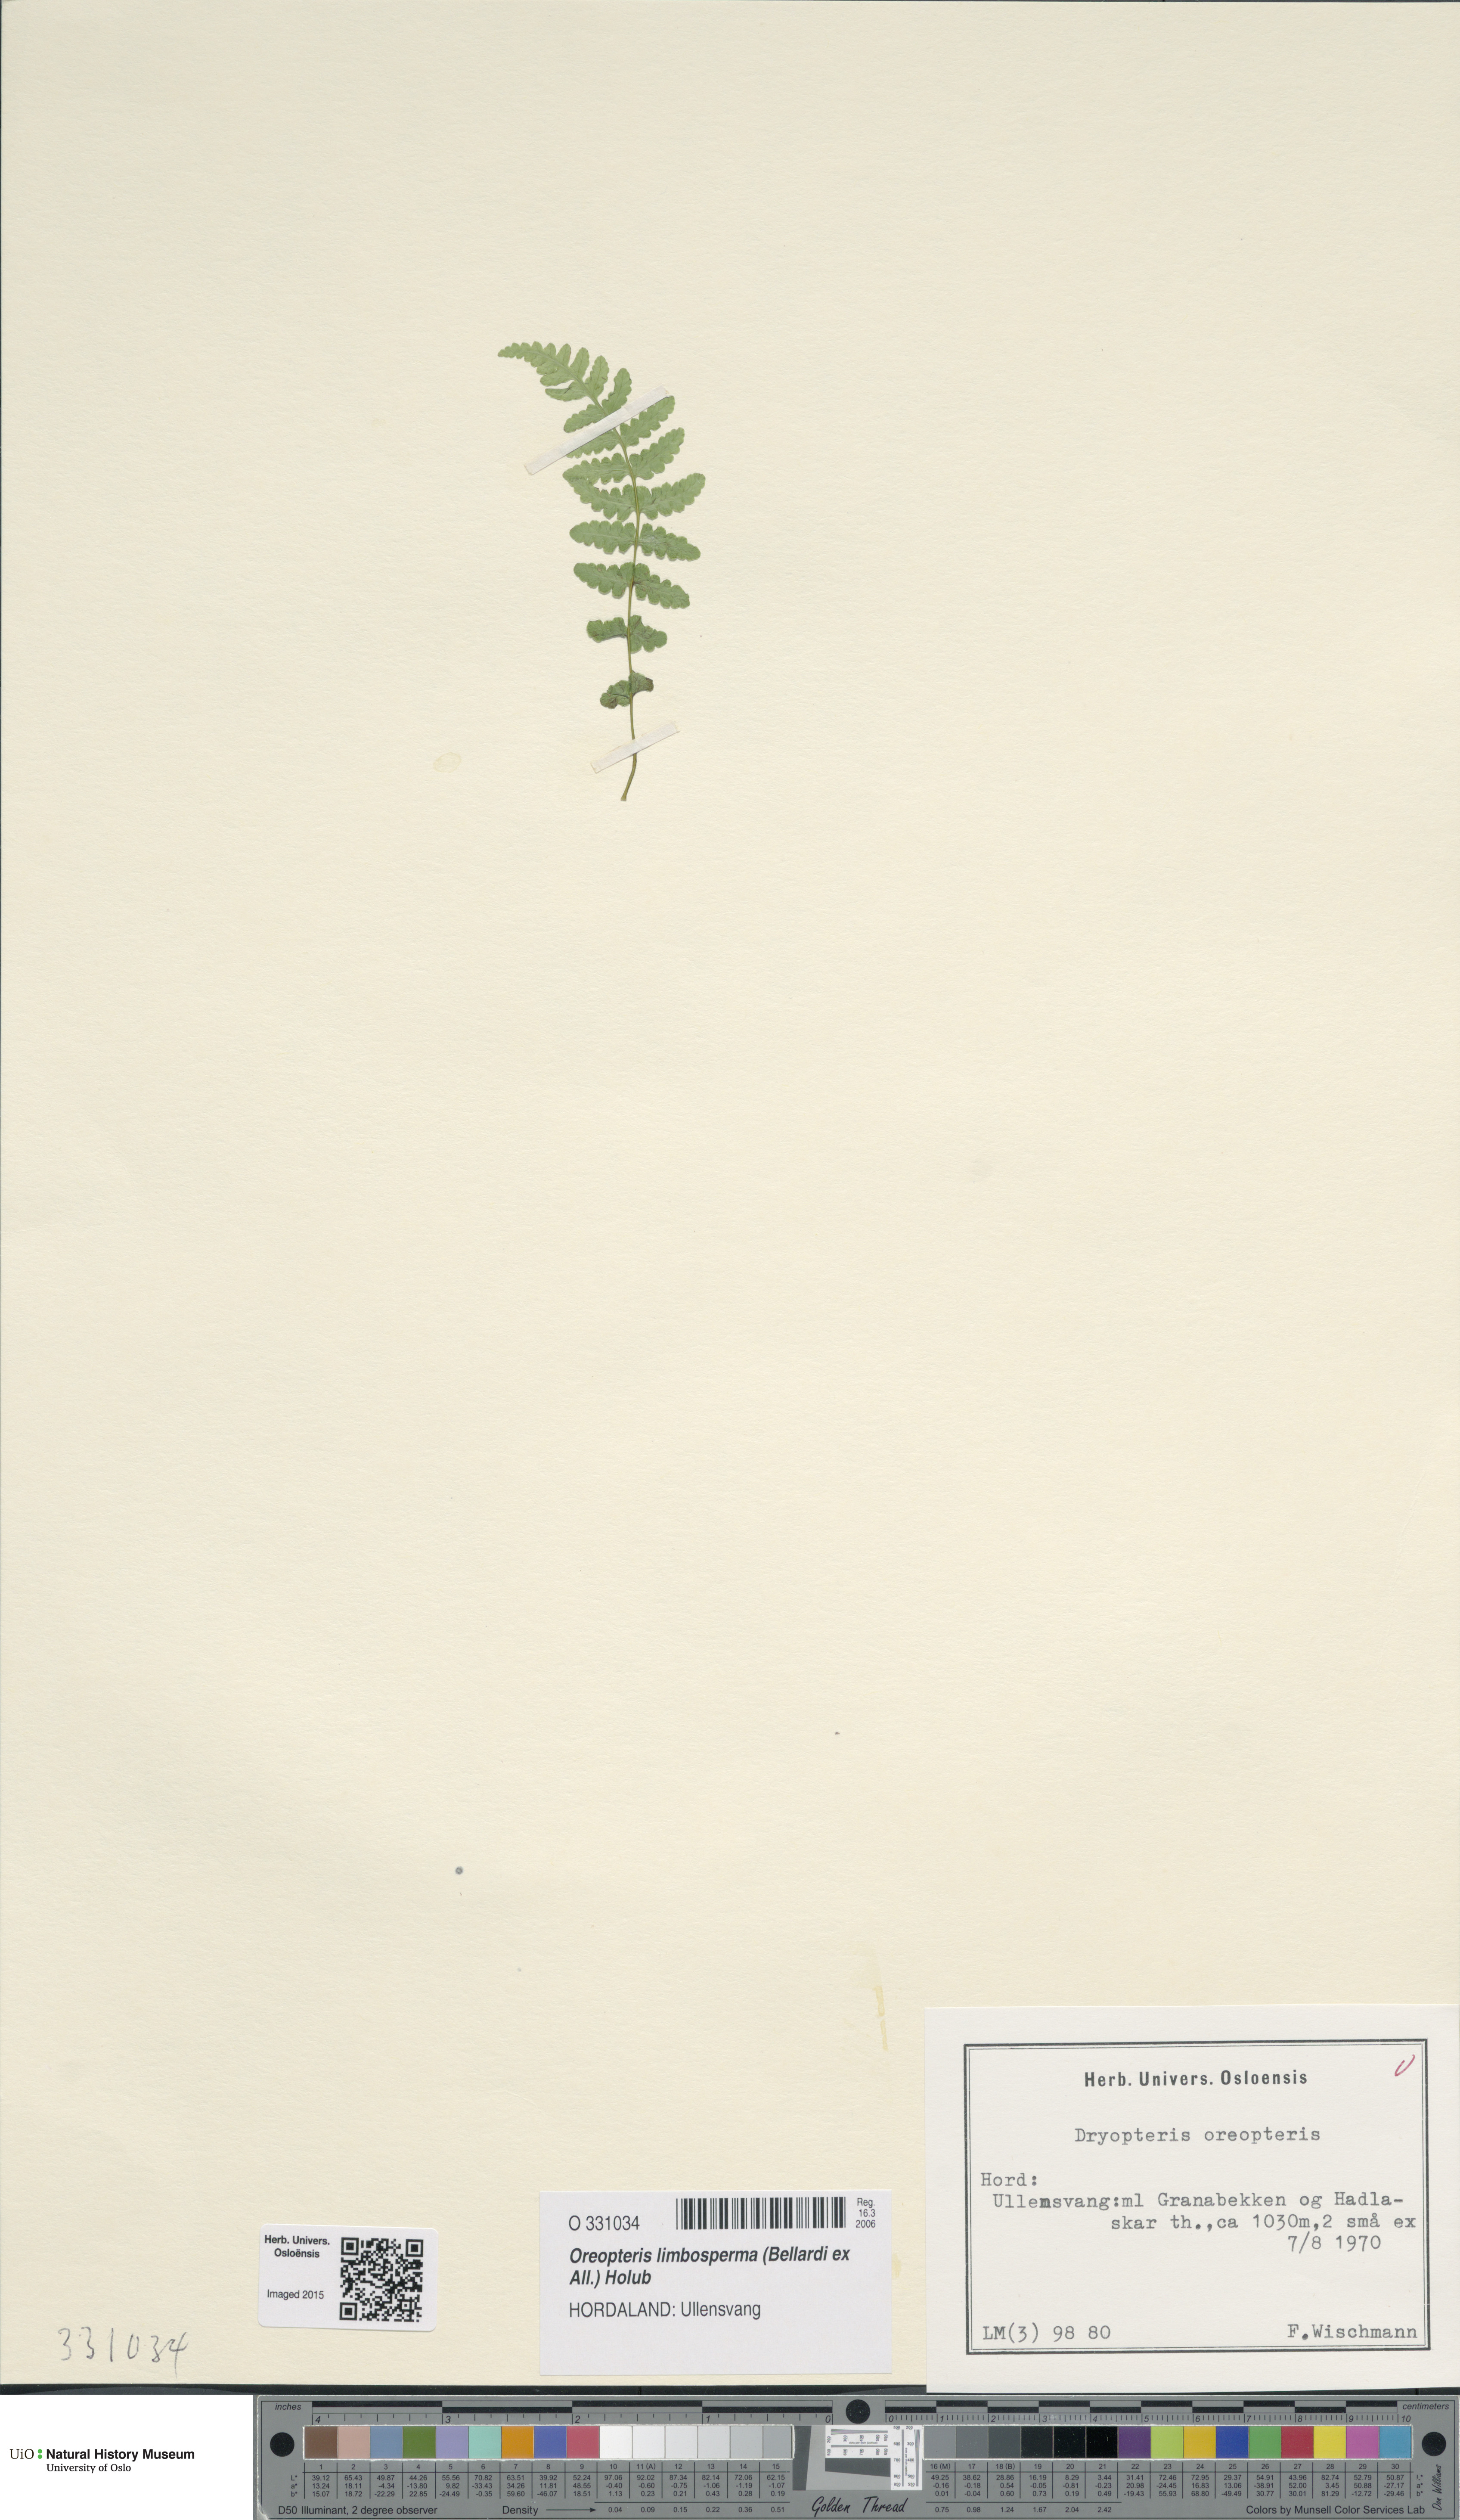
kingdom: Plantae
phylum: Tracheophyta
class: Polypodiopsida
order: Polypodiales
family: Thelypteridaceae
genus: Oreopteris
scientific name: Oreopteris limbosperma
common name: Lemon-scented fern
